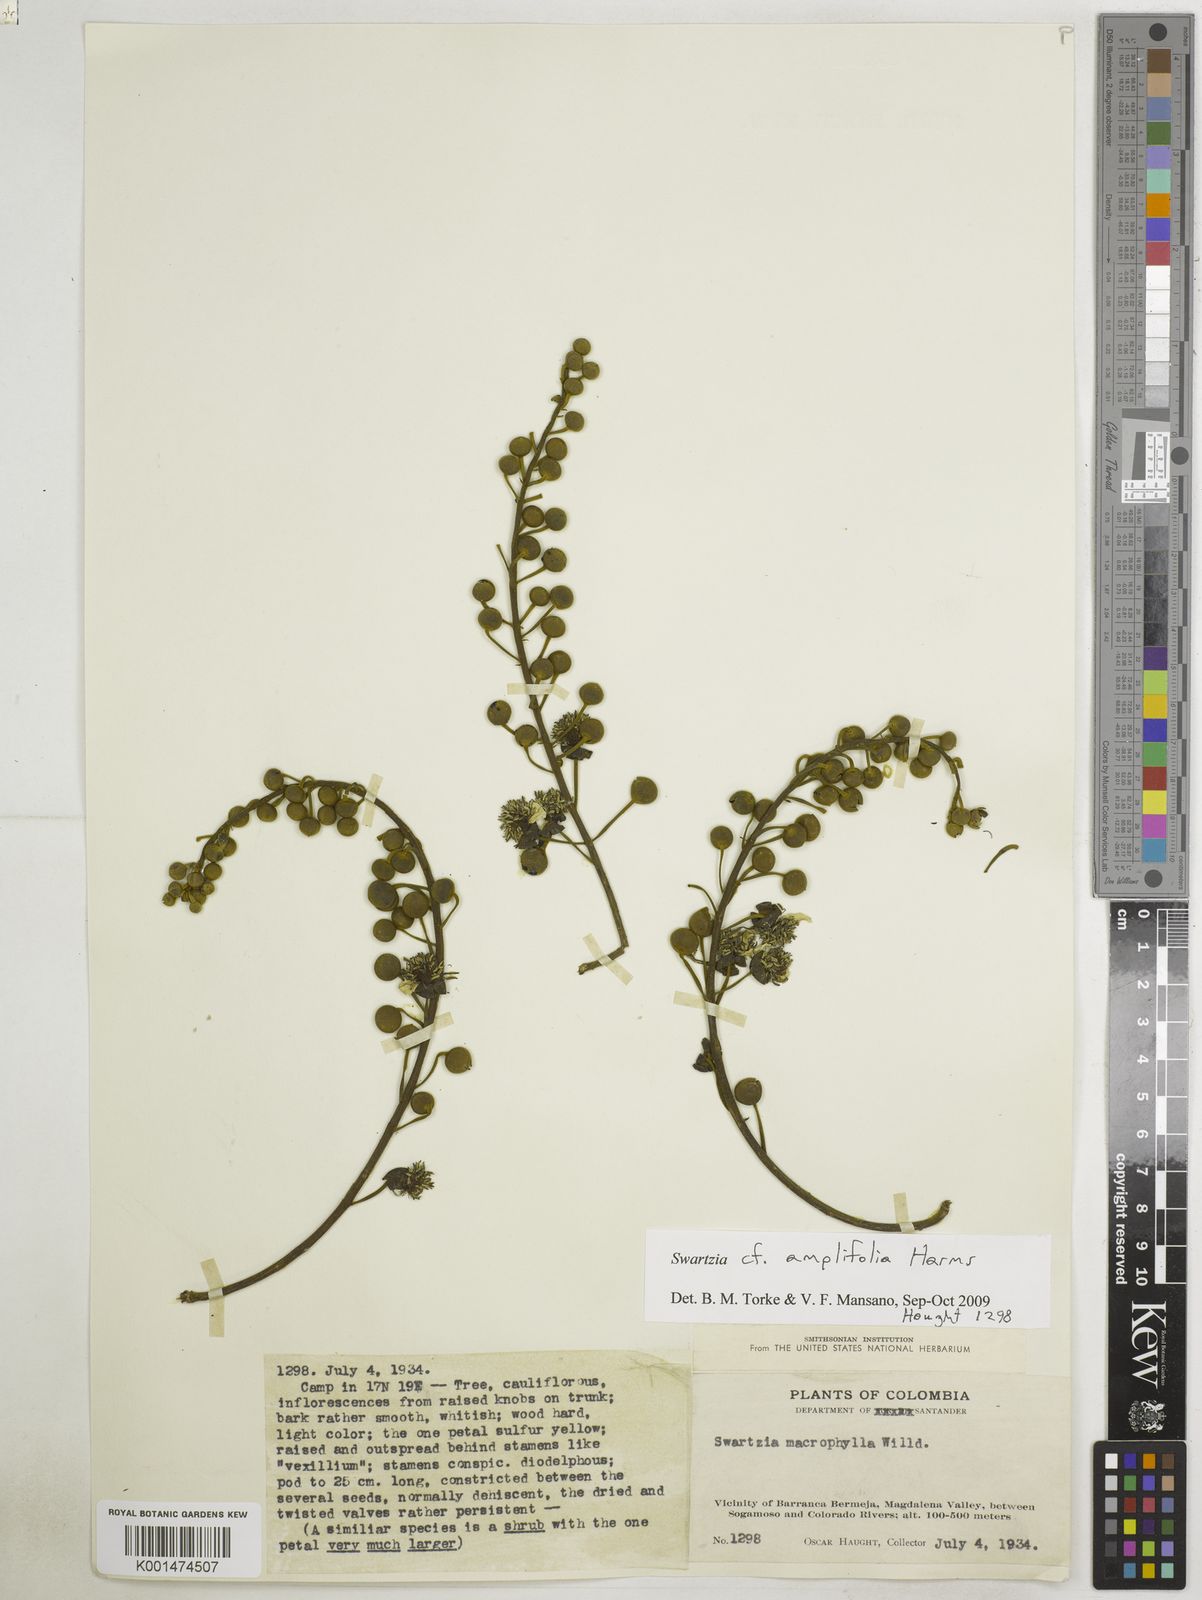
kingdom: Plantae
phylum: Tracheophyta
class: Magnoliopsida
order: Fabales
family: Fabaceae
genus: Swartzia
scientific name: Swartzia amplifolia
